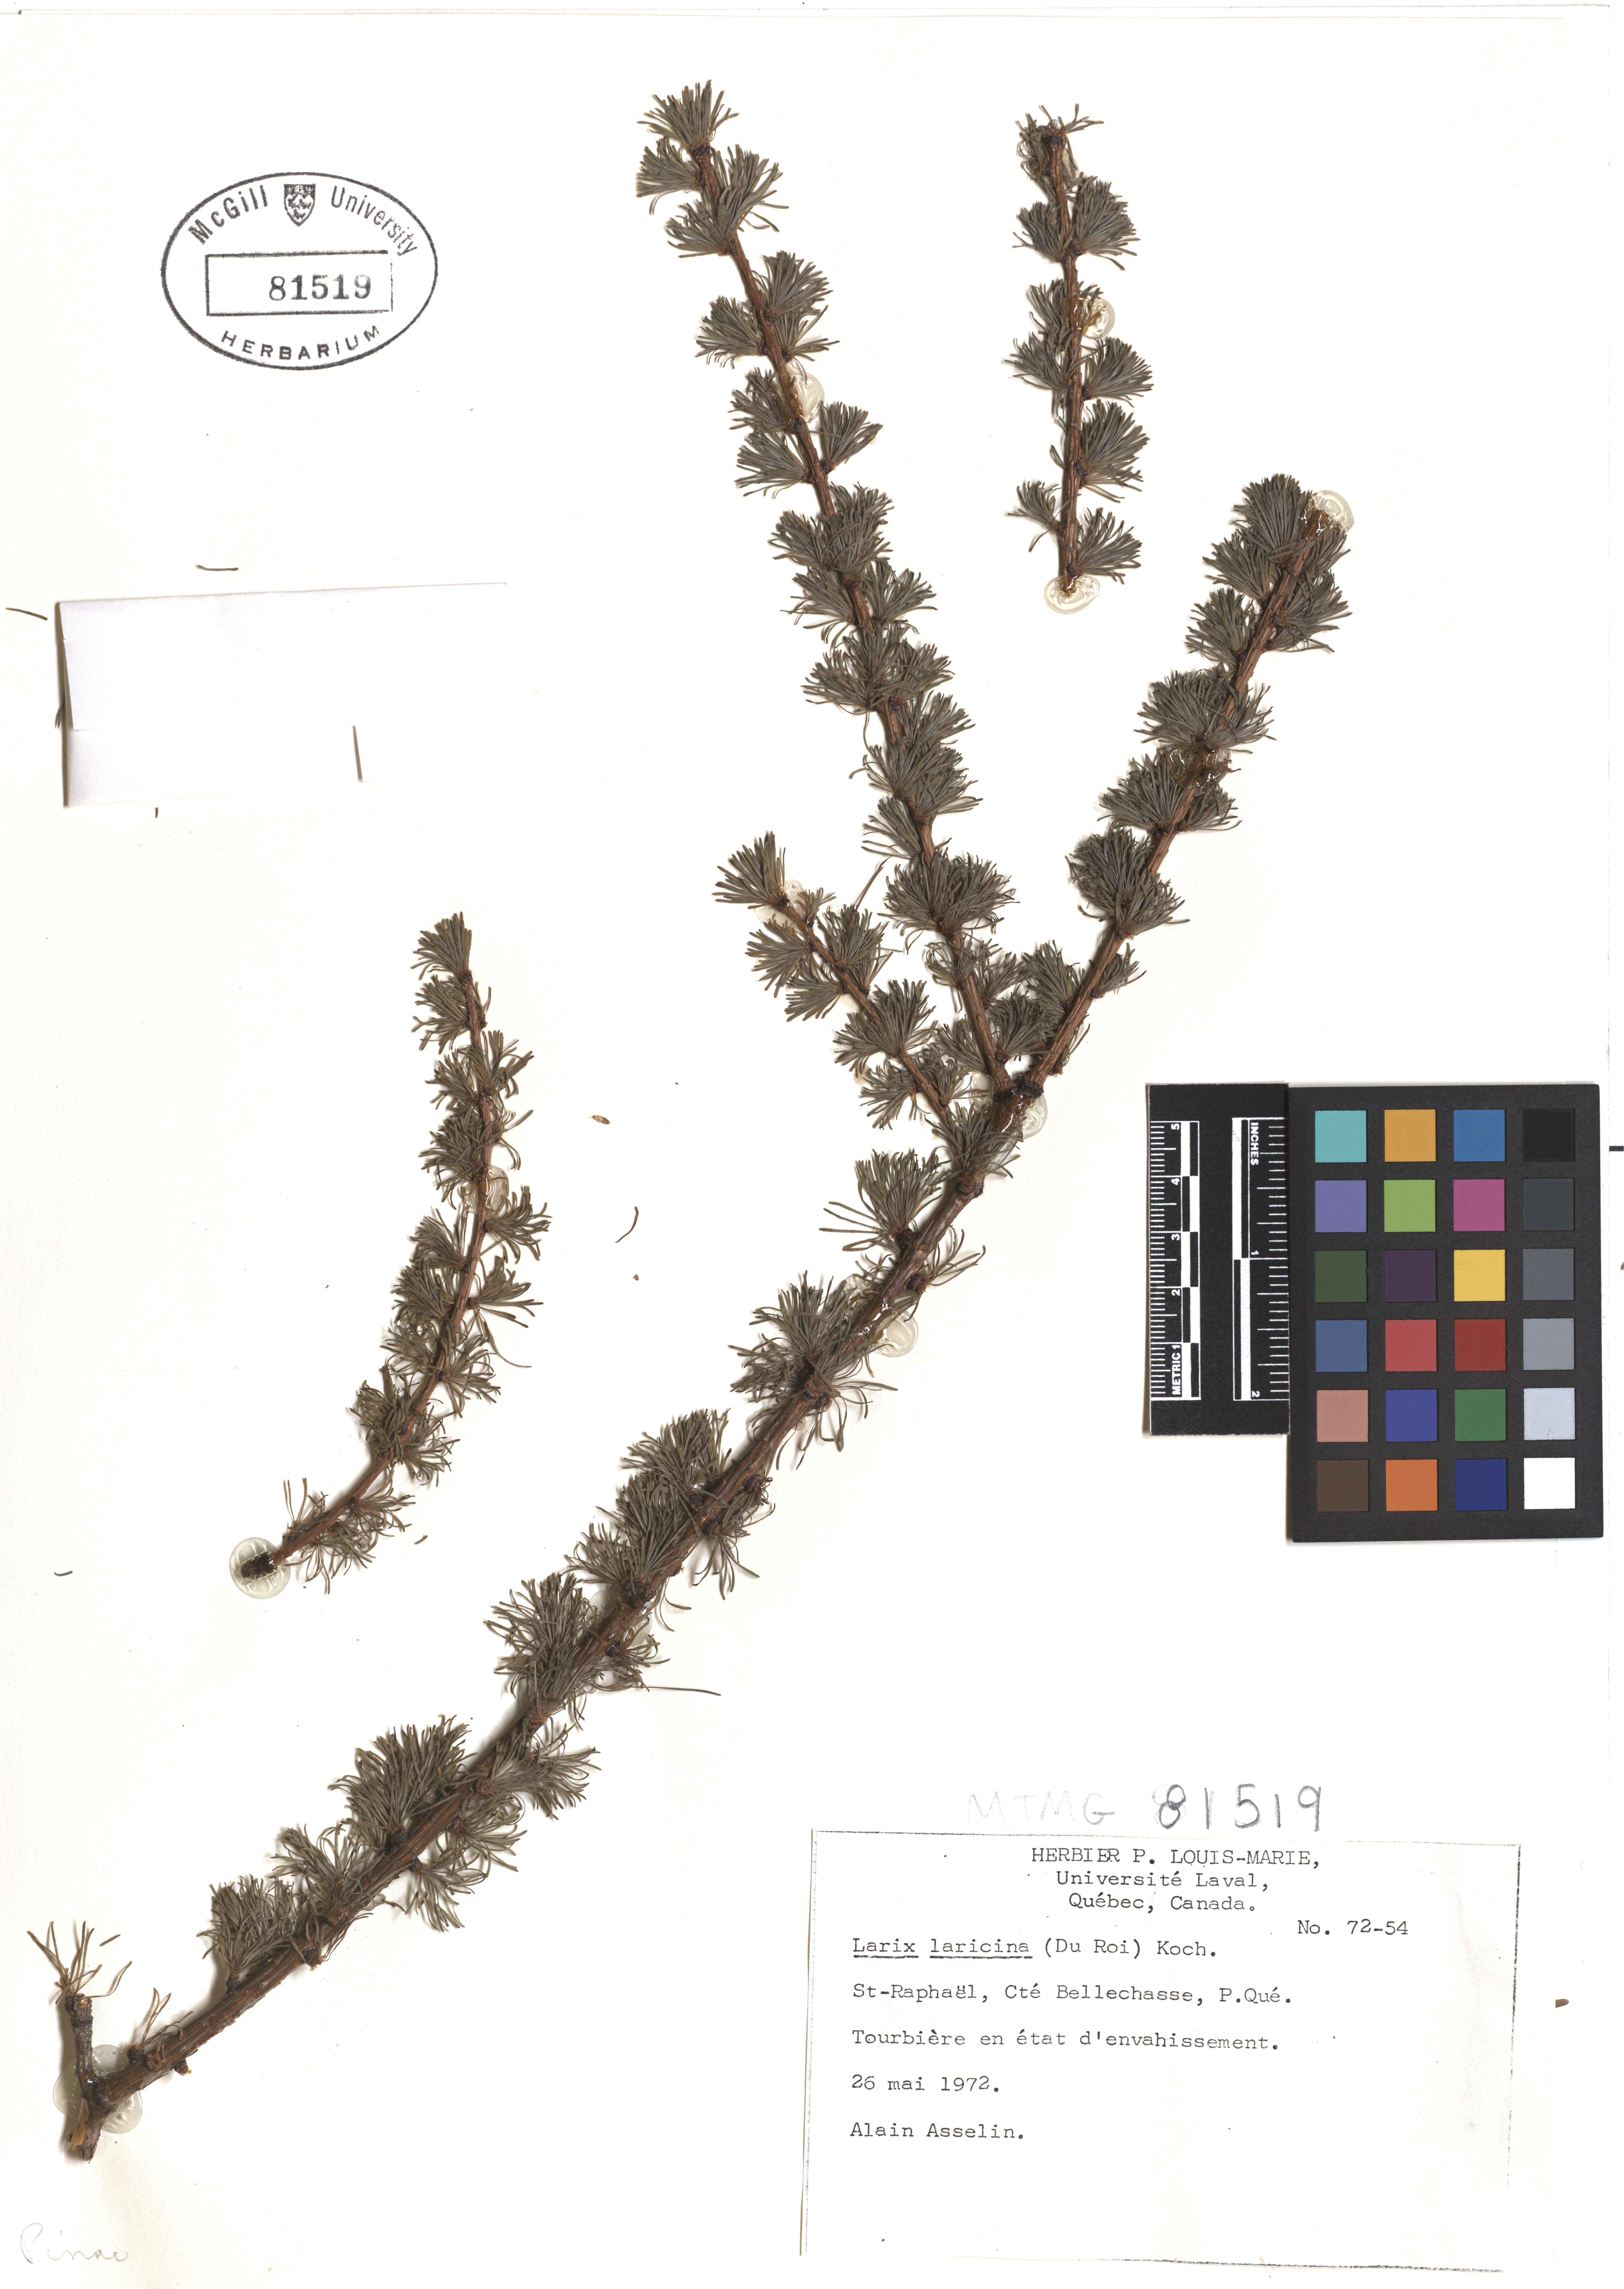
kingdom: Plantae
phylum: Tracheophyta
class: Pinopsida
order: Pinales
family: Pinaceae
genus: Larix
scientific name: Larix laricina
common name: American larch
